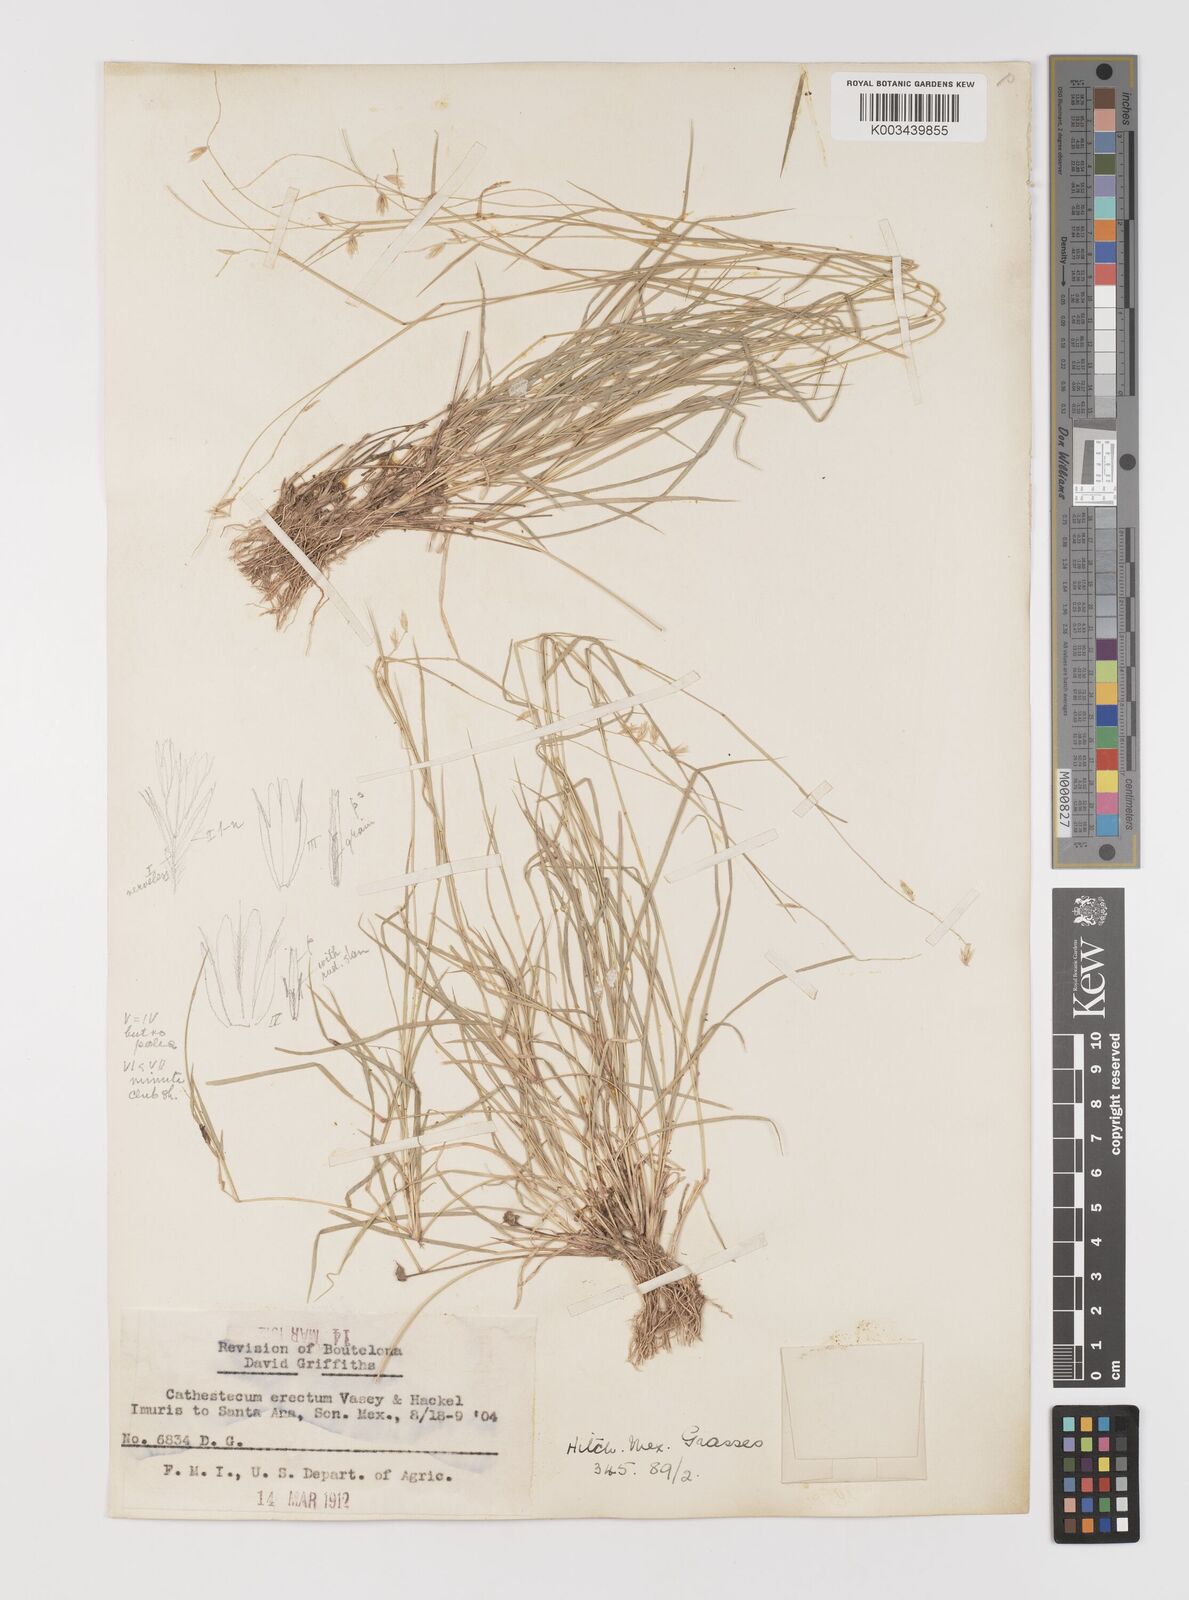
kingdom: Plantae
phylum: Tracheophyta
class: Liliopsida
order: Poales
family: Poaceae
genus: Bouteloua
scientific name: Bouteloua erecta
